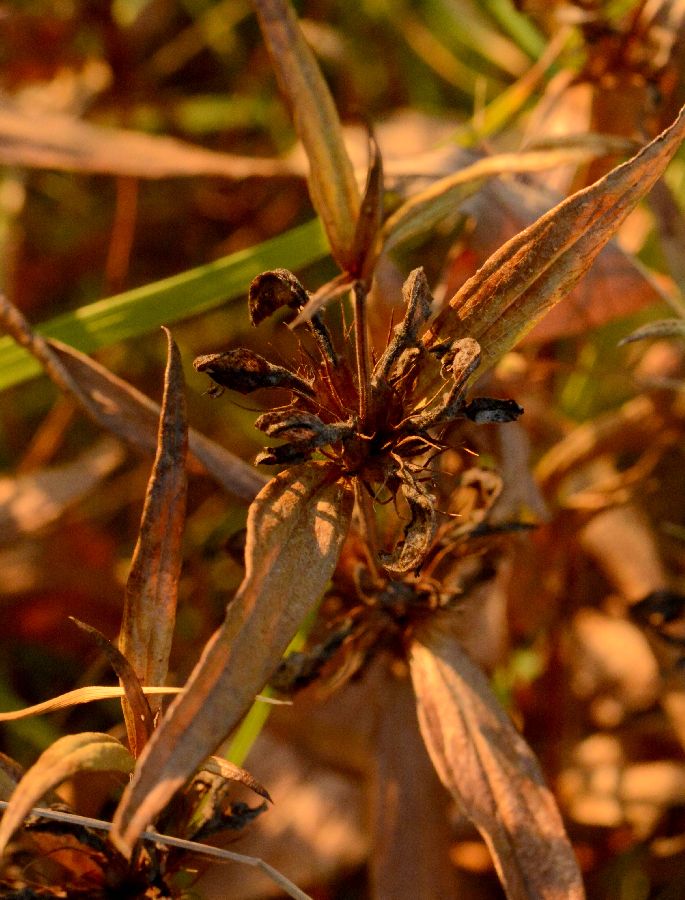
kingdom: Plantae
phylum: Tracheophyta
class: Magnoliopsida
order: Lamiales
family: Lamiaceae
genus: Phlomis
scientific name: Phlomis herba-venti
